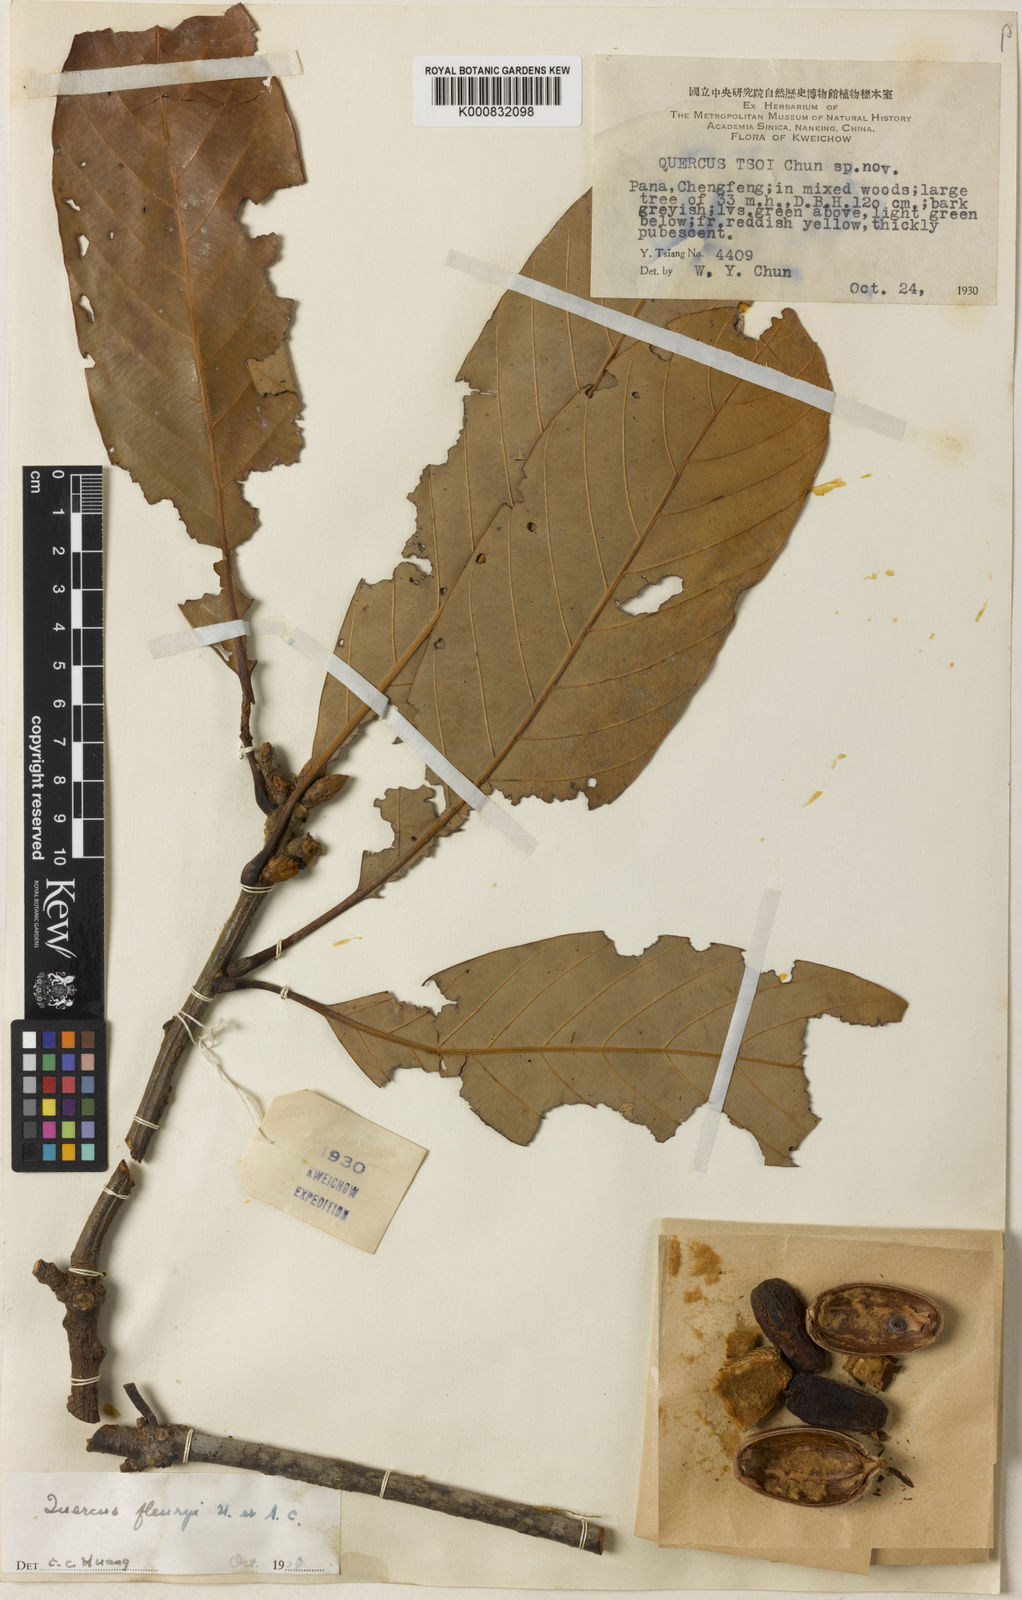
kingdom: Plantae
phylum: Tracheophyta
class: Magnoliopsida
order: Fagales
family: Fagaceae
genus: Quercus
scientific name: Quercus macrocalyx
